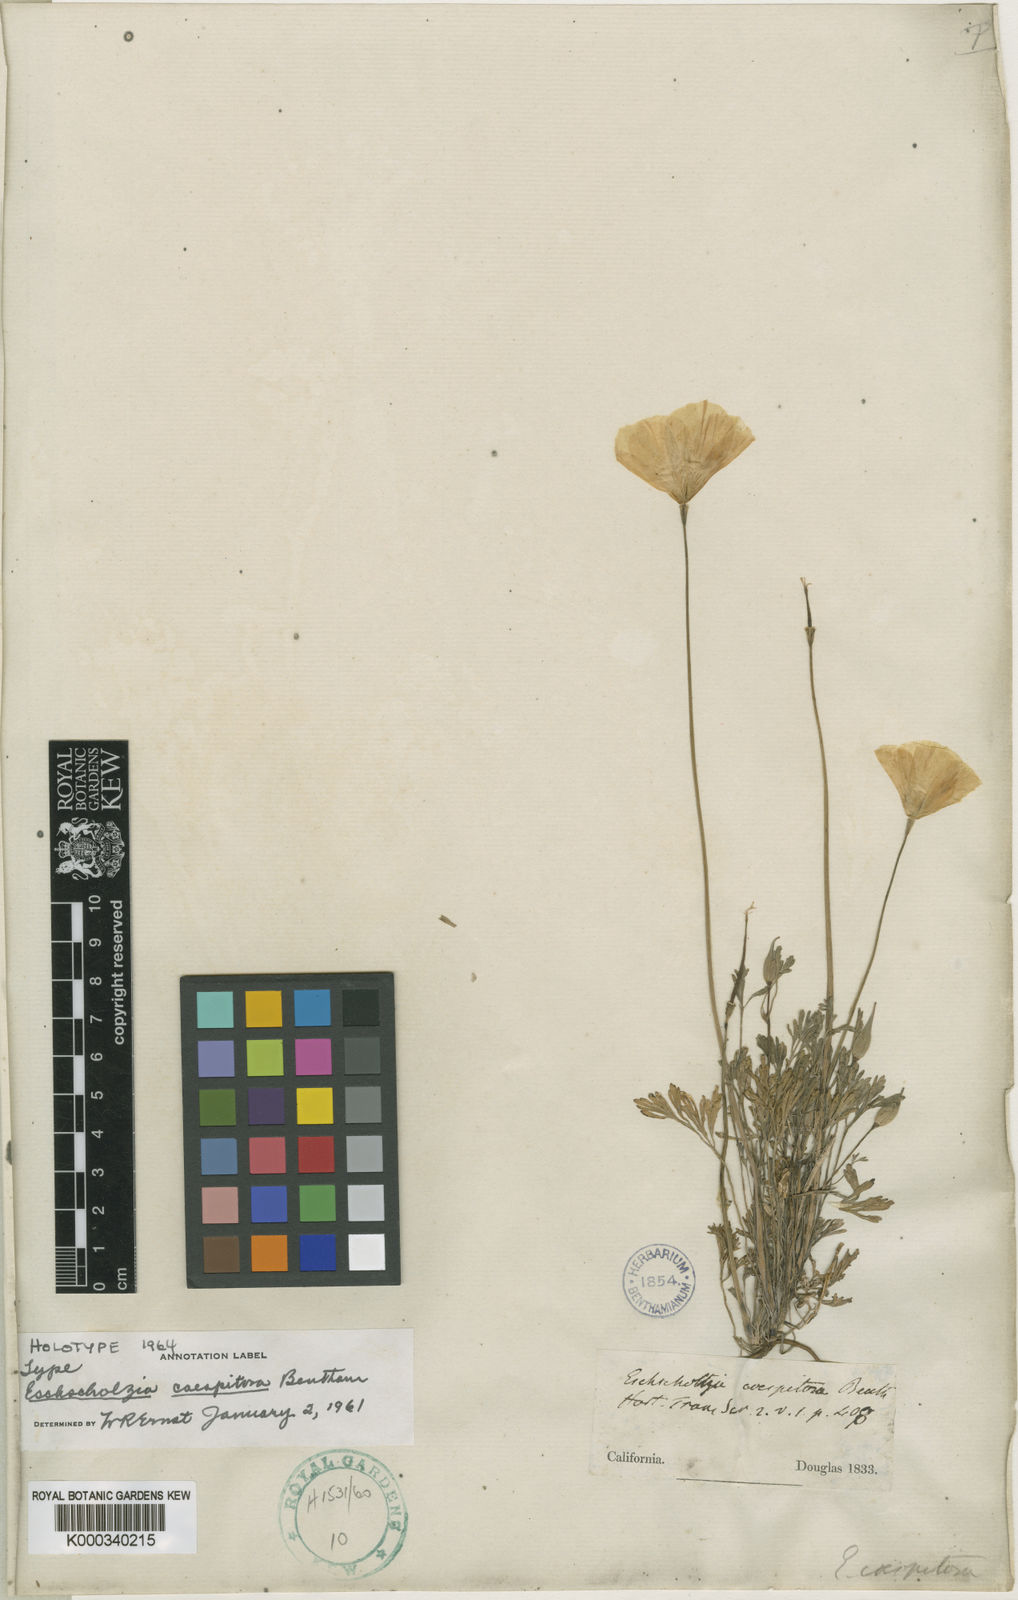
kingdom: Plantae
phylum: Tracheophyta
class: Magnoliopsida
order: Ranunculales
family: Papaveraceae
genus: Eschscholzia
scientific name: Eschscholzia caespitosa
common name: Tufted california-poppy
